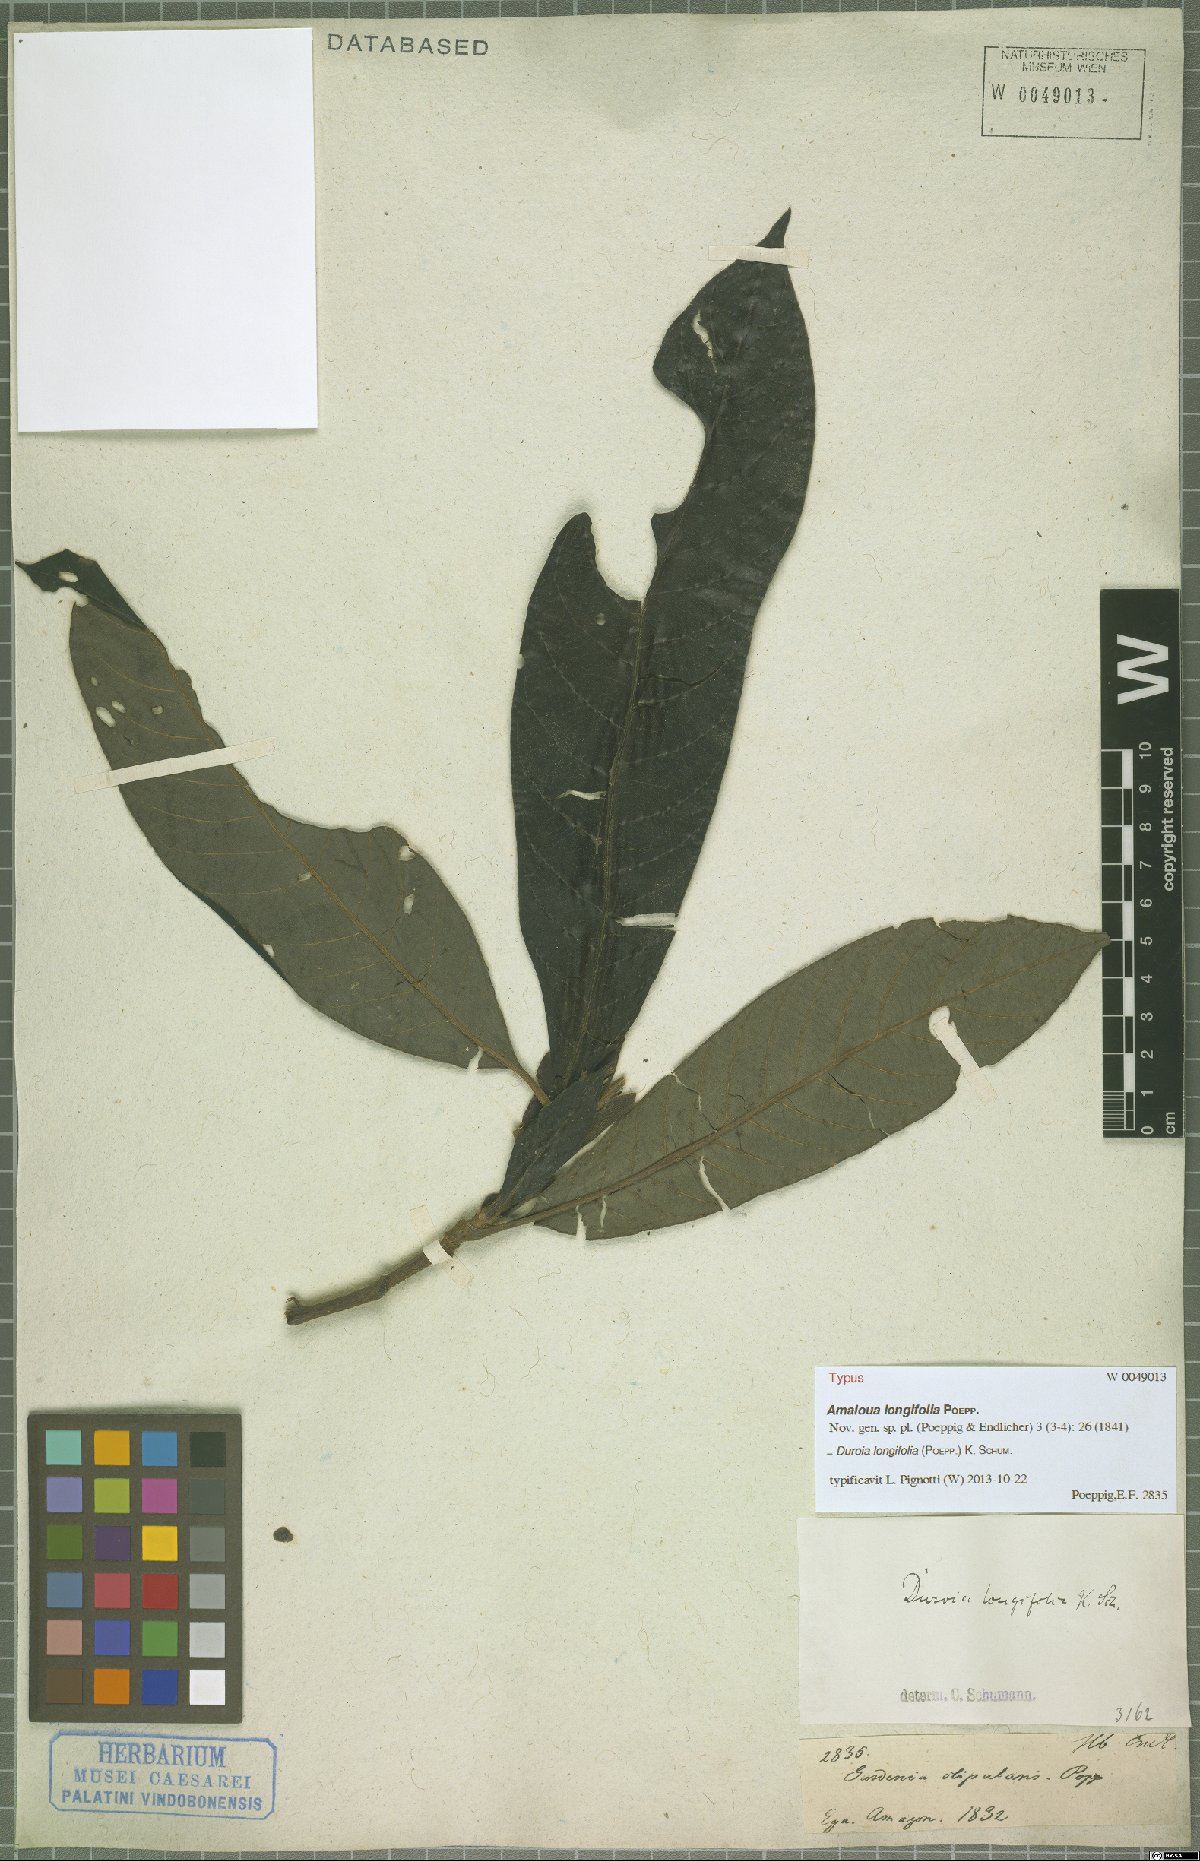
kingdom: Plantae
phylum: Tracheophyta
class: Magnoliopsida
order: Gentianales
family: Rubiaceae
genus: Duroia
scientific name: Duroia longifolia
